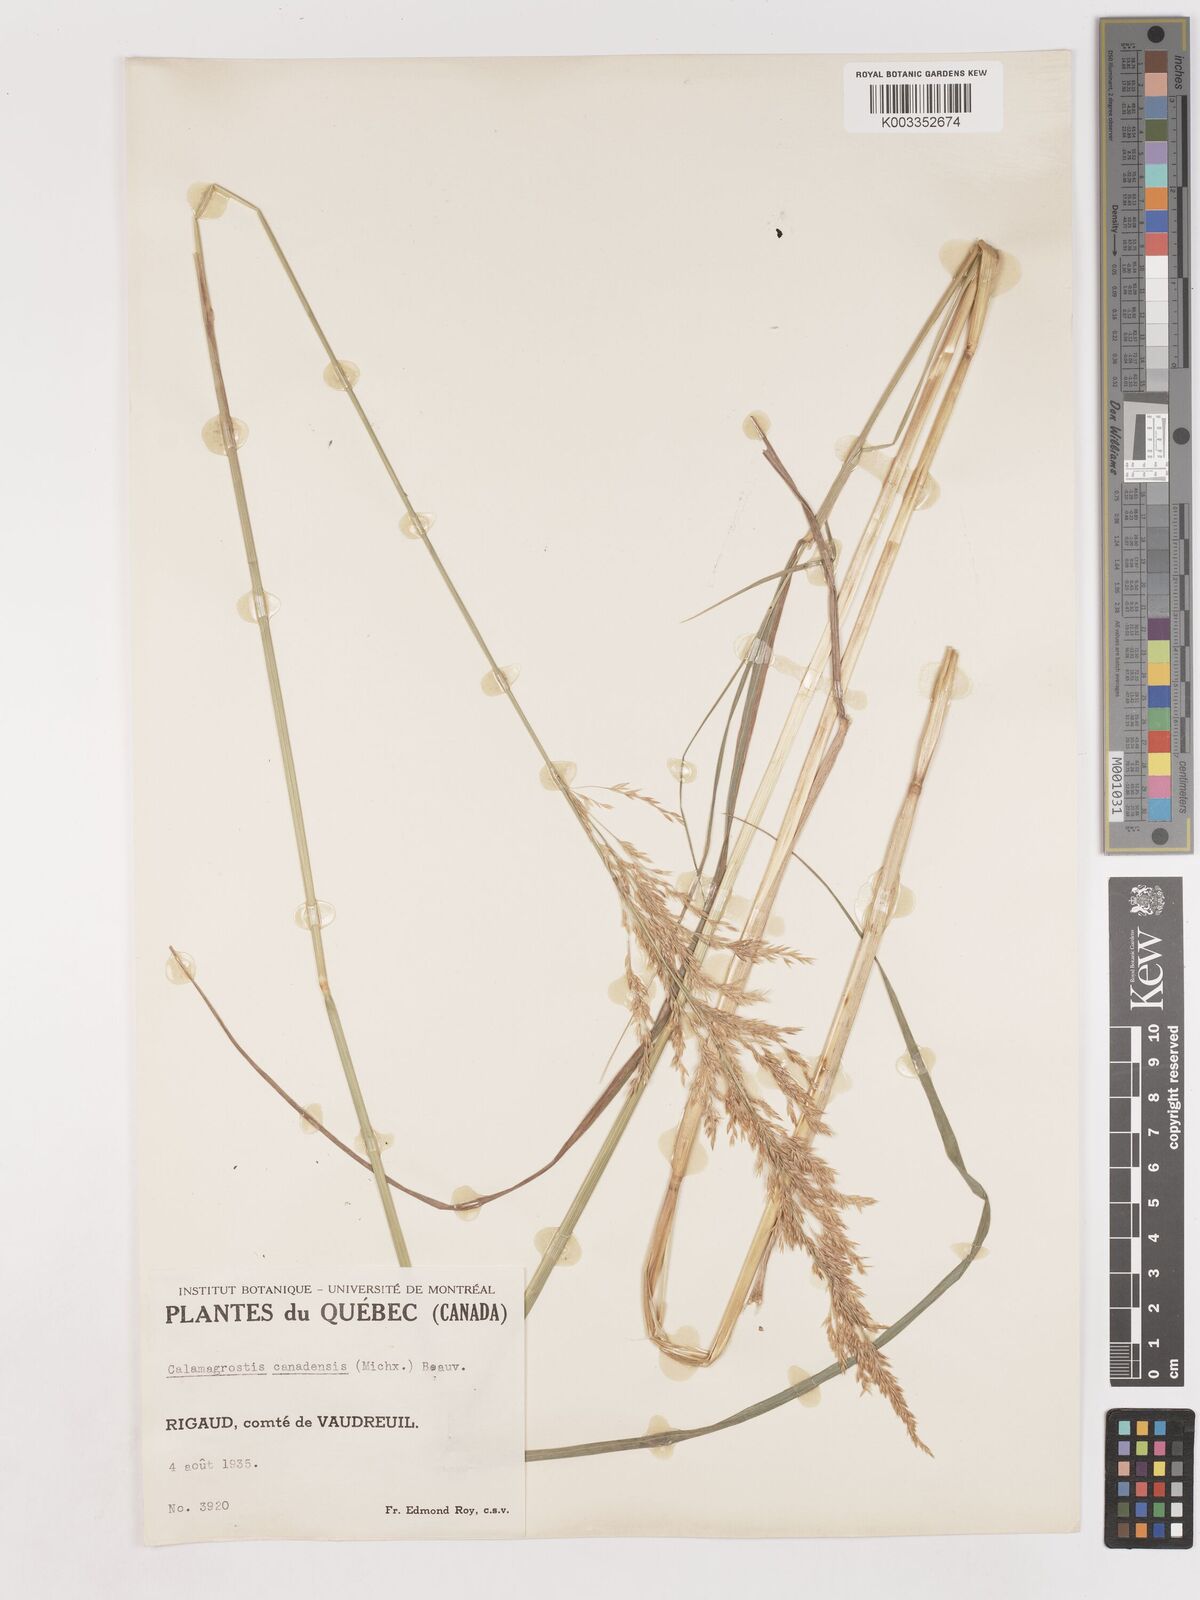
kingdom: Plantae
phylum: Tracheophyta
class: Liliopsida
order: Poales
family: Poaceae
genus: Calamagrostis
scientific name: Calamagrostis canadensis
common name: Canada bluejoint
